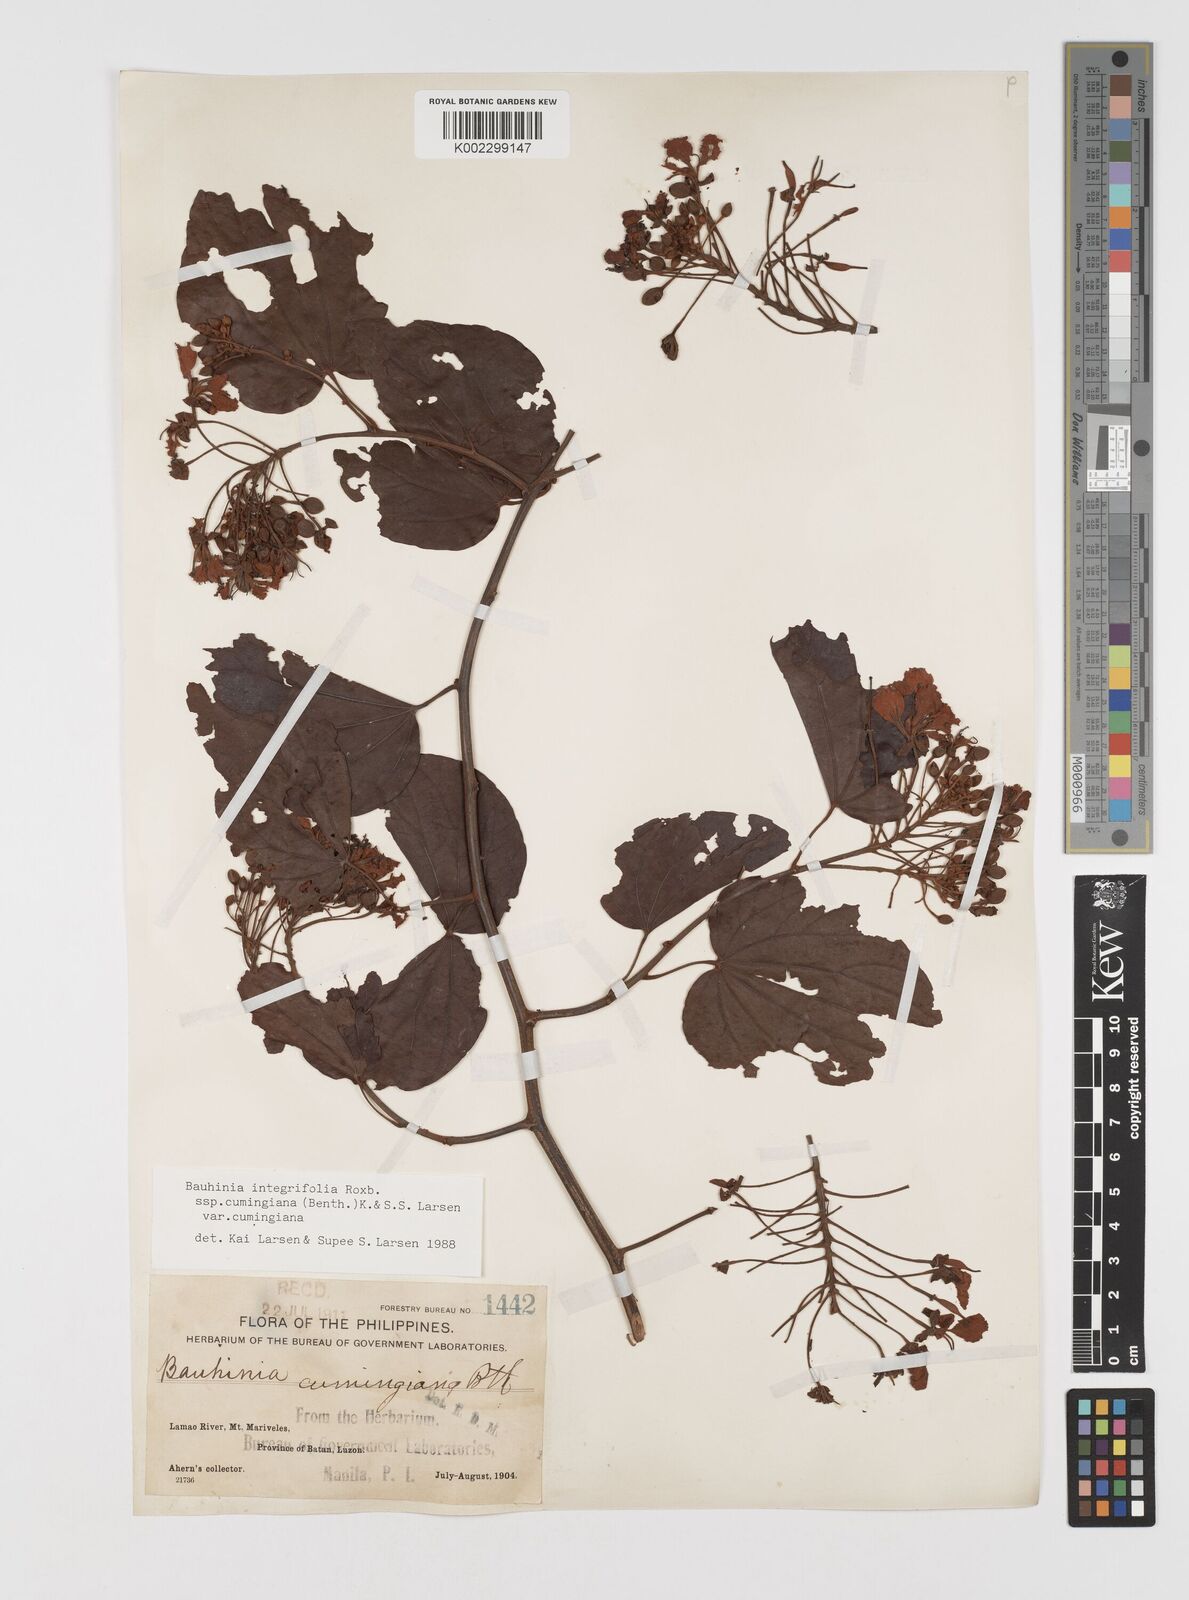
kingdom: Plantae
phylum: Tracheophyta
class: Magnoliopsida
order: Fabales
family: Fabaceae
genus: Phanera
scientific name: Phanera integrifolia
